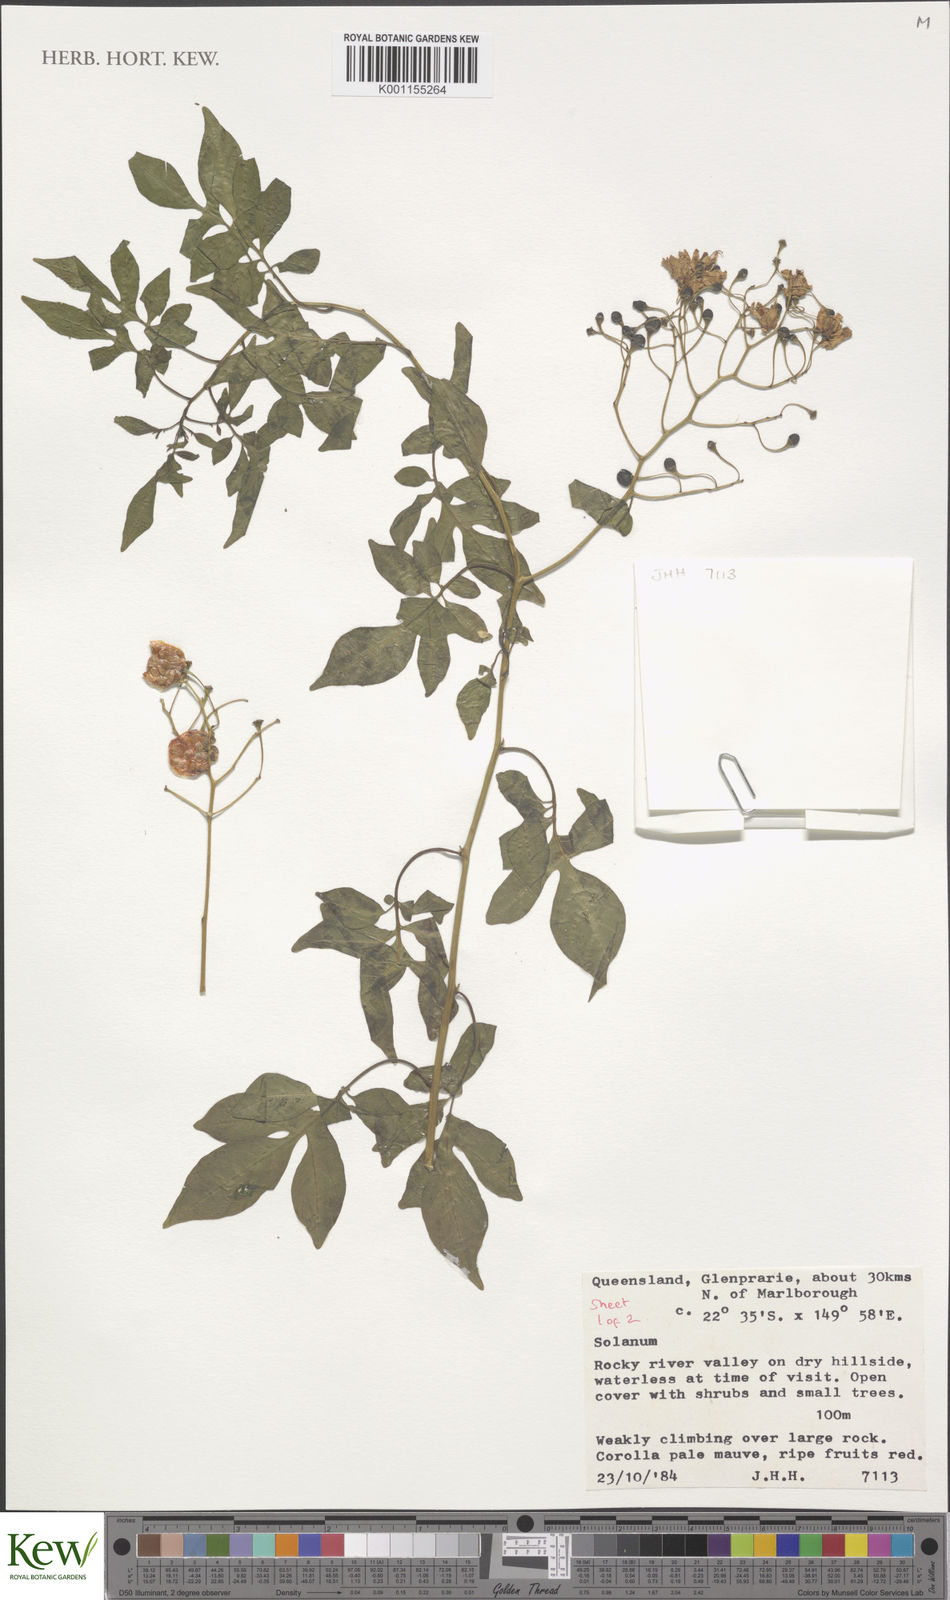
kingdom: Plantae
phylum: Tracheophyta
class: Magnoliopsida
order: Solanales
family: Solanaceae
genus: Solanum
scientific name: Solanum
